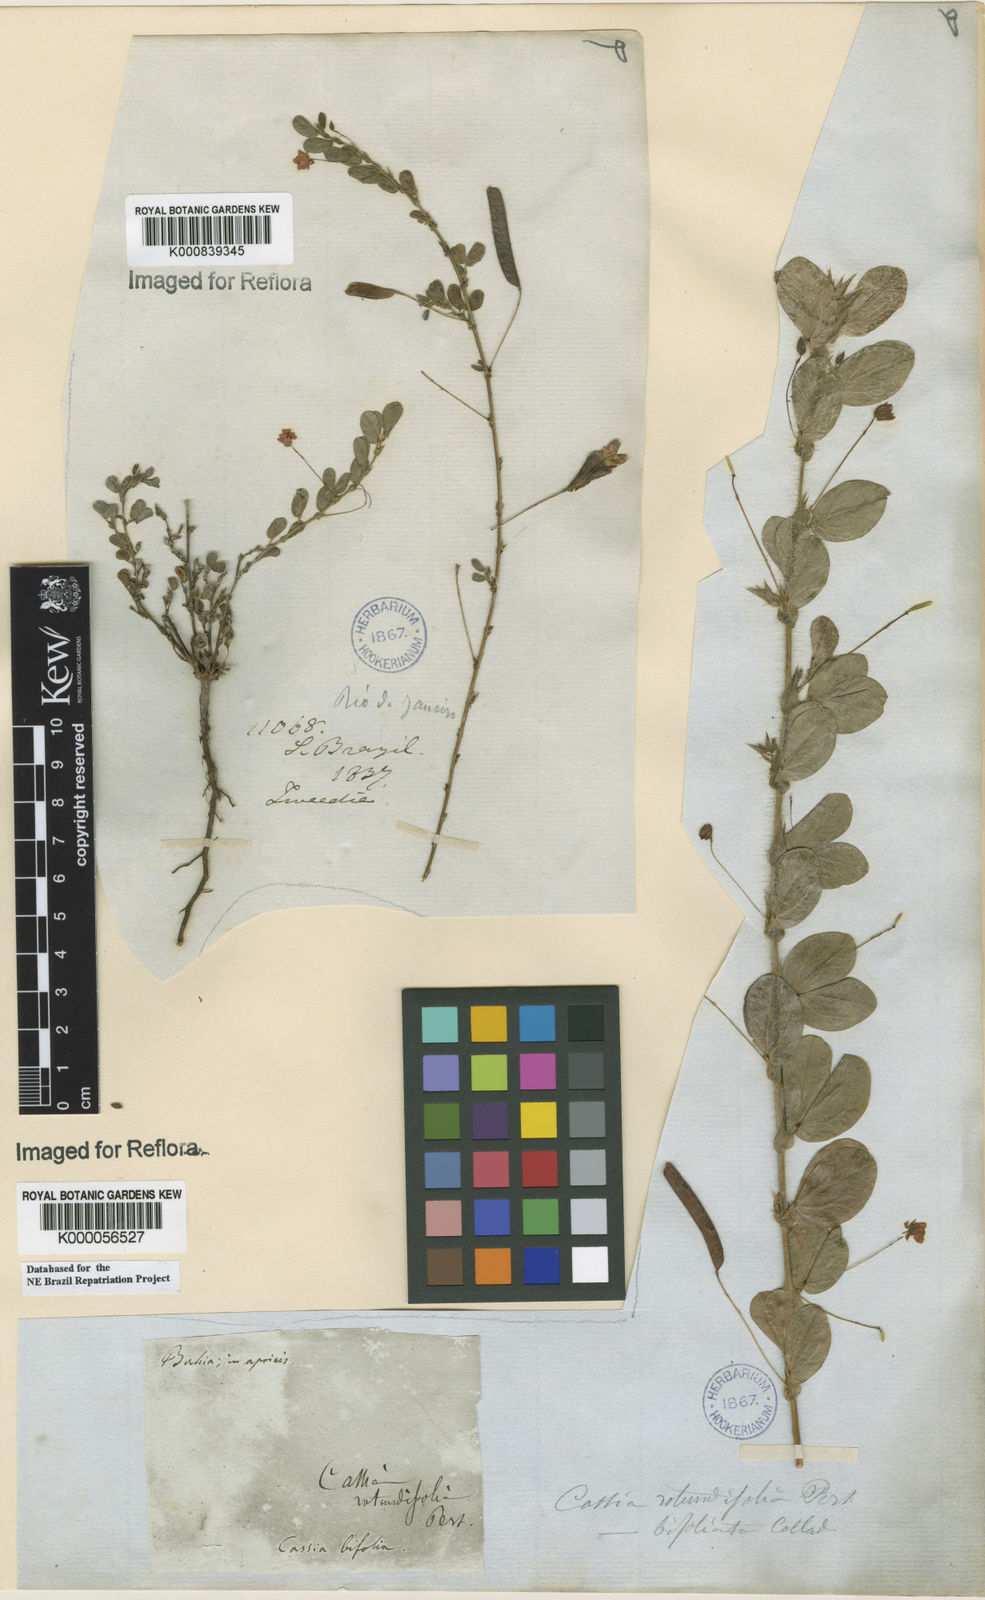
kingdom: Plantae
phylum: Tracheophyta
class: Magnoliopsida
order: Fabales
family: Fabaceae
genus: Chamaecrista
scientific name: Chamaecrista rotundifolia
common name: Round-leaf cassia
